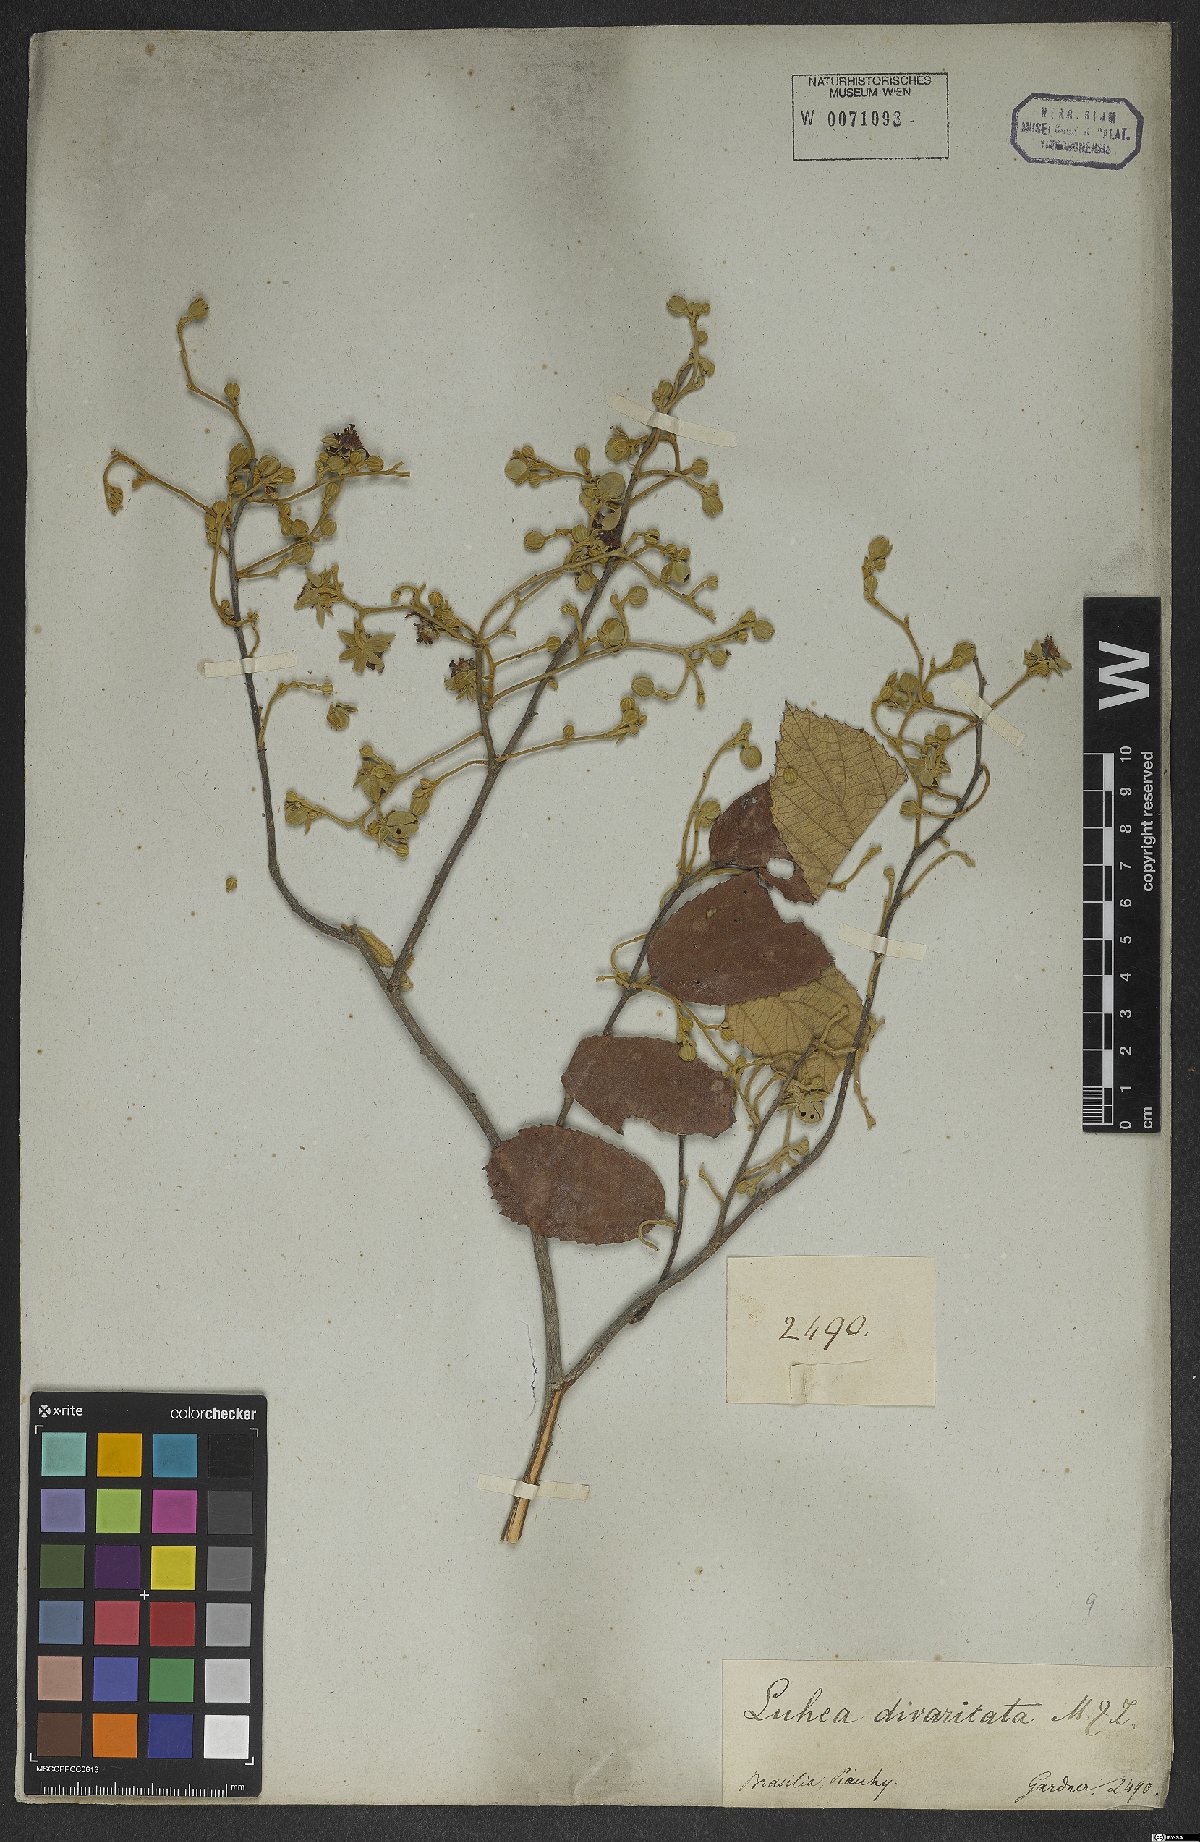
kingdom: Plantae
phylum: Tracheophyta
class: Magnoliopsida
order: Malvales
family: Malvaceae
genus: Luehea
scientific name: Luehea divaricata
